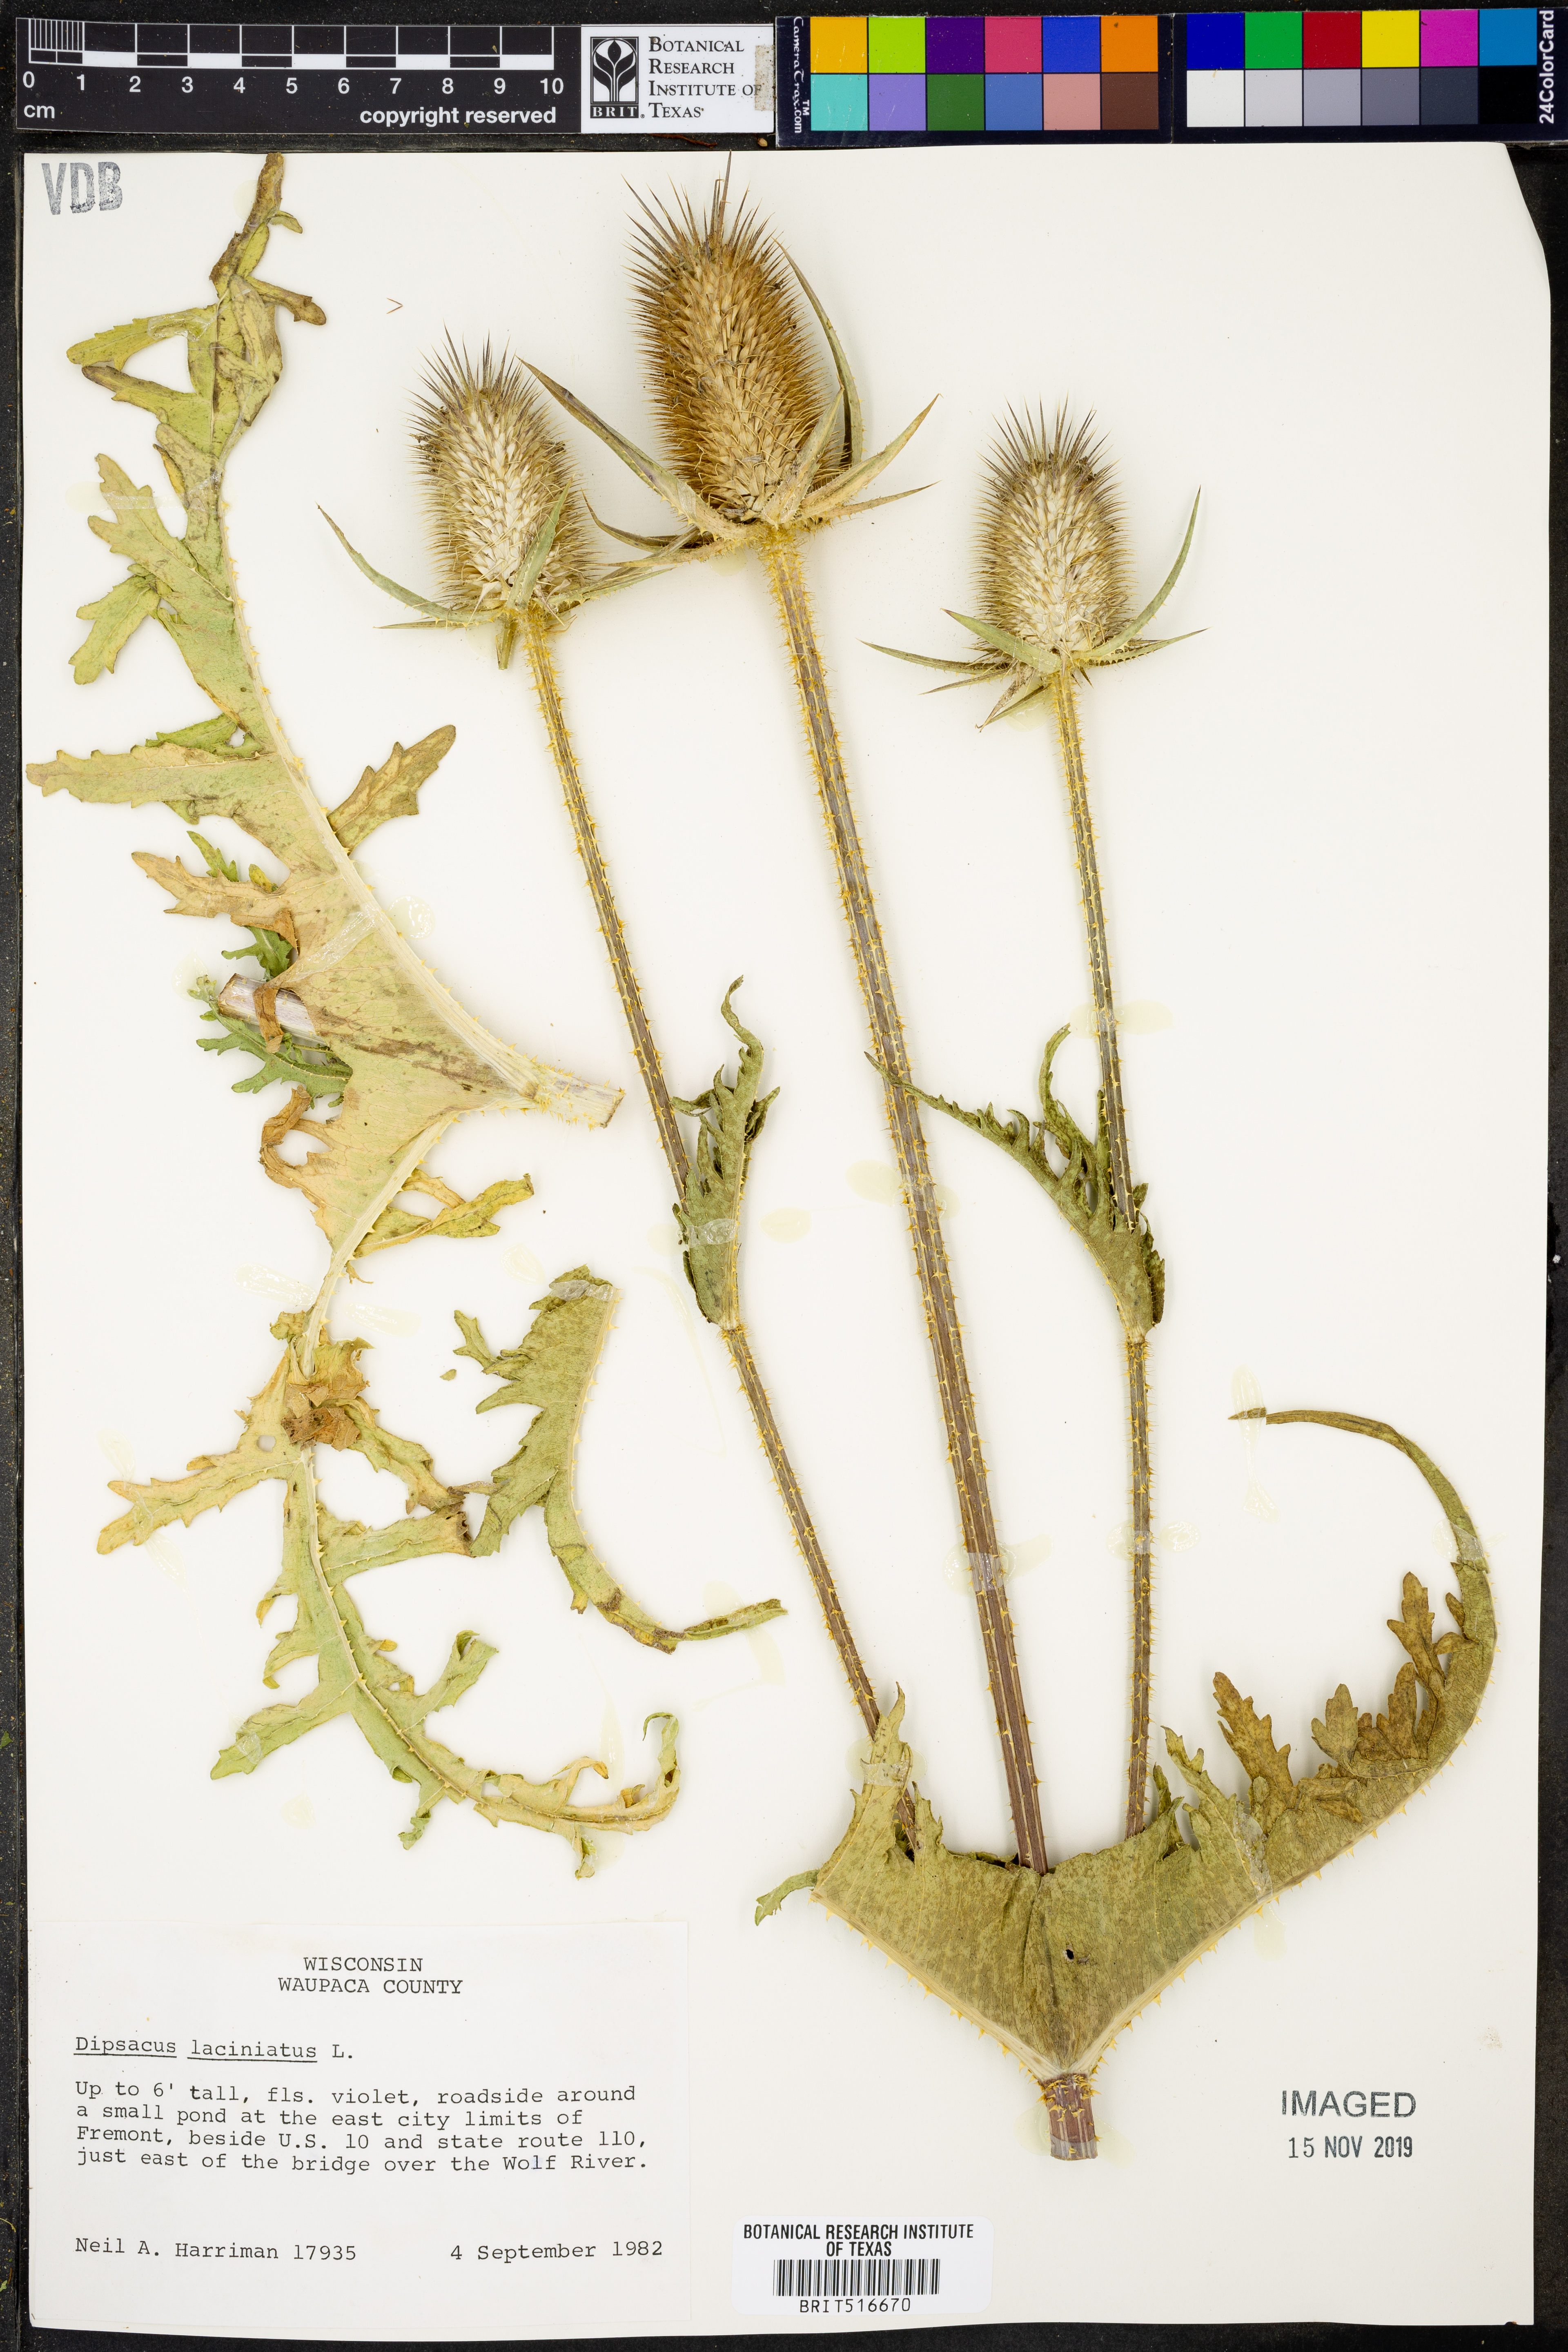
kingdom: Plantae
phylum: Tracheophyta
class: Magnoliopsida
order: Dipsacales
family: Caprifoliaceae
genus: Dipsacus
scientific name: Dipsacus laciniatus
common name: Cut-leaved teasel
